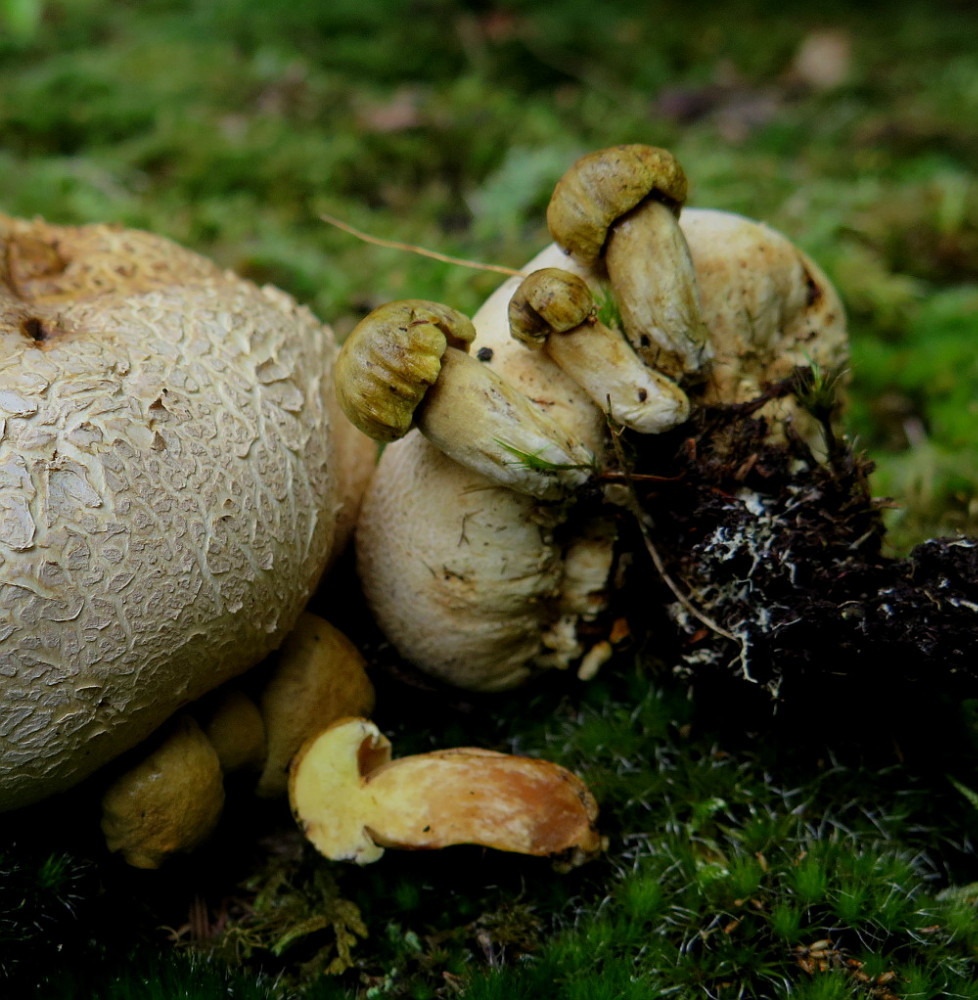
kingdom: Fungi
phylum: Basidiomycota
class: Agaricomycetes
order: Boletales
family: Boletaceae
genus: Pseudoboletus
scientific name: Pseudoboletus parasiticus
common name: snyltende rørhat
